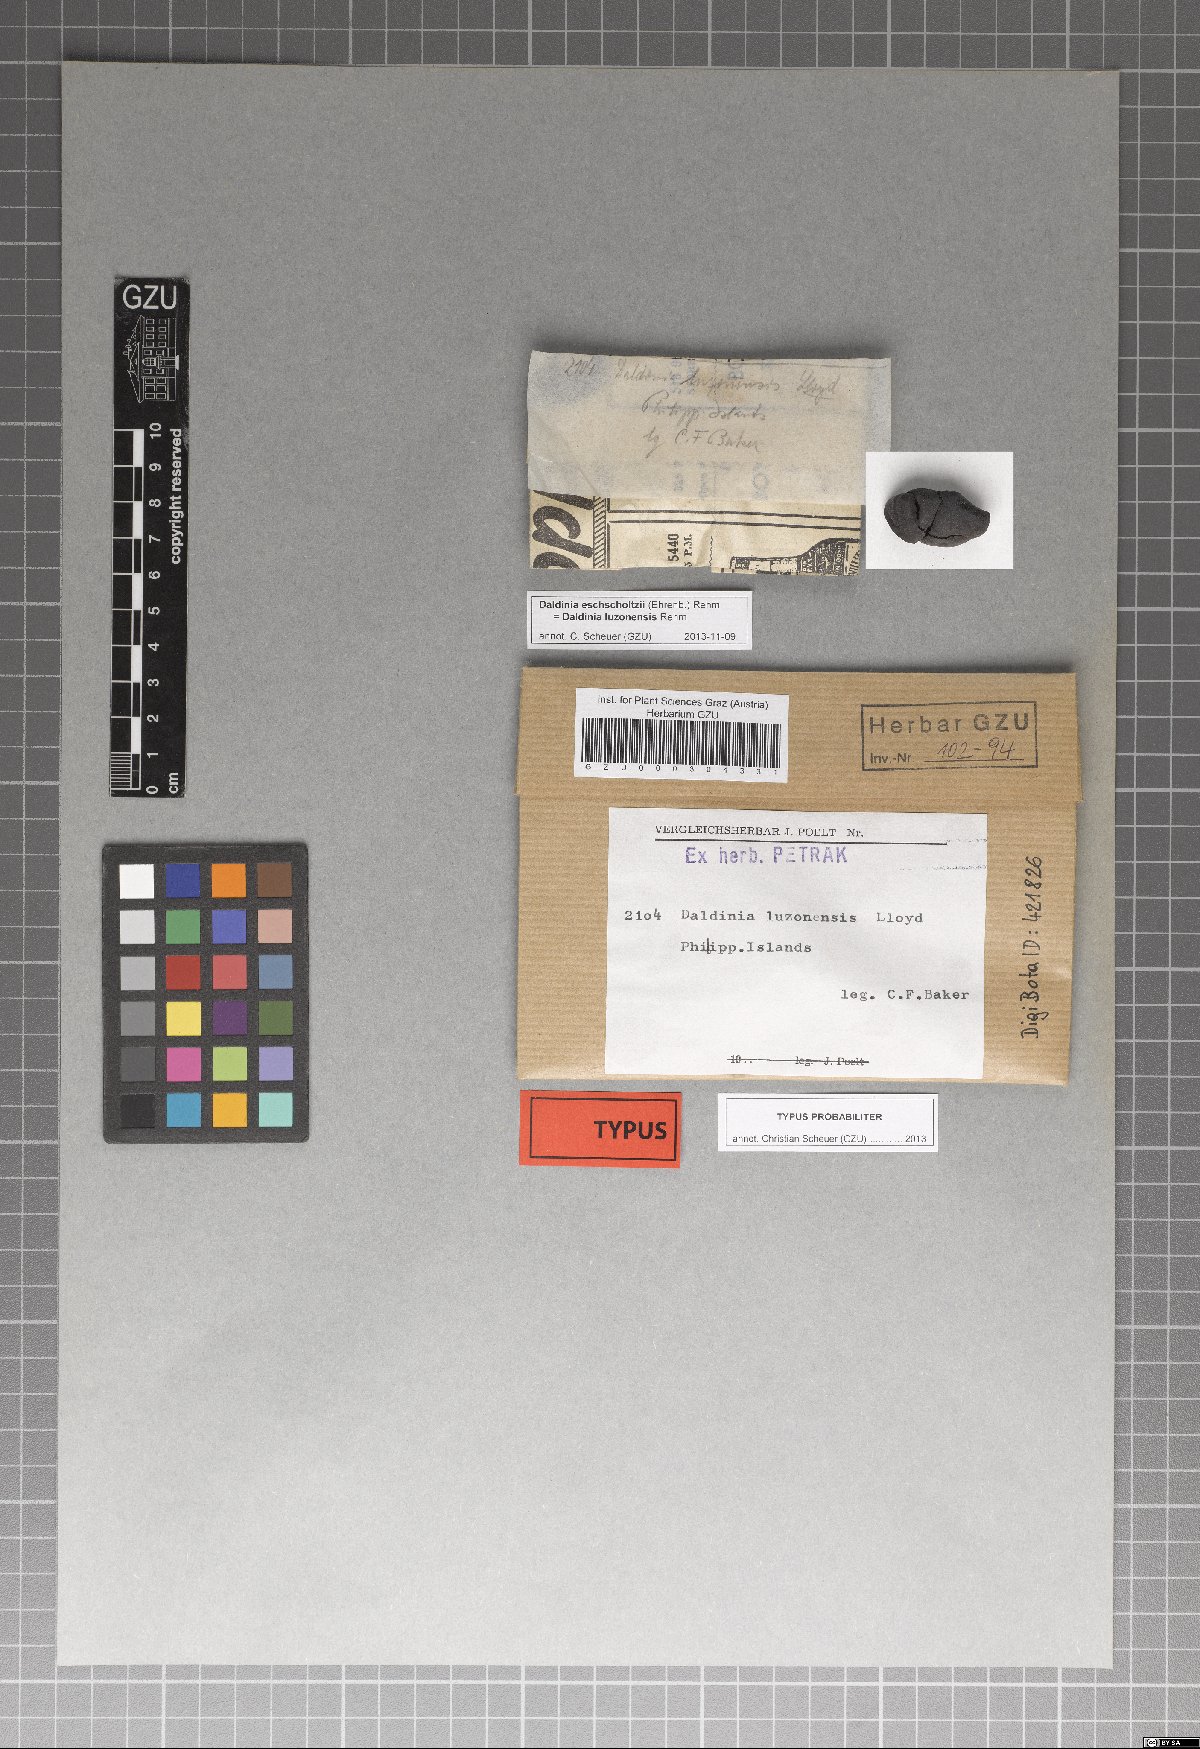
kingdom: Fungi
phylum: Ascomycota
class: Sordariomycetes
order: Xylariales
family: Hypoxylaceae
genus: Daldinia
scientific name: Daldinia eschscholtzii
